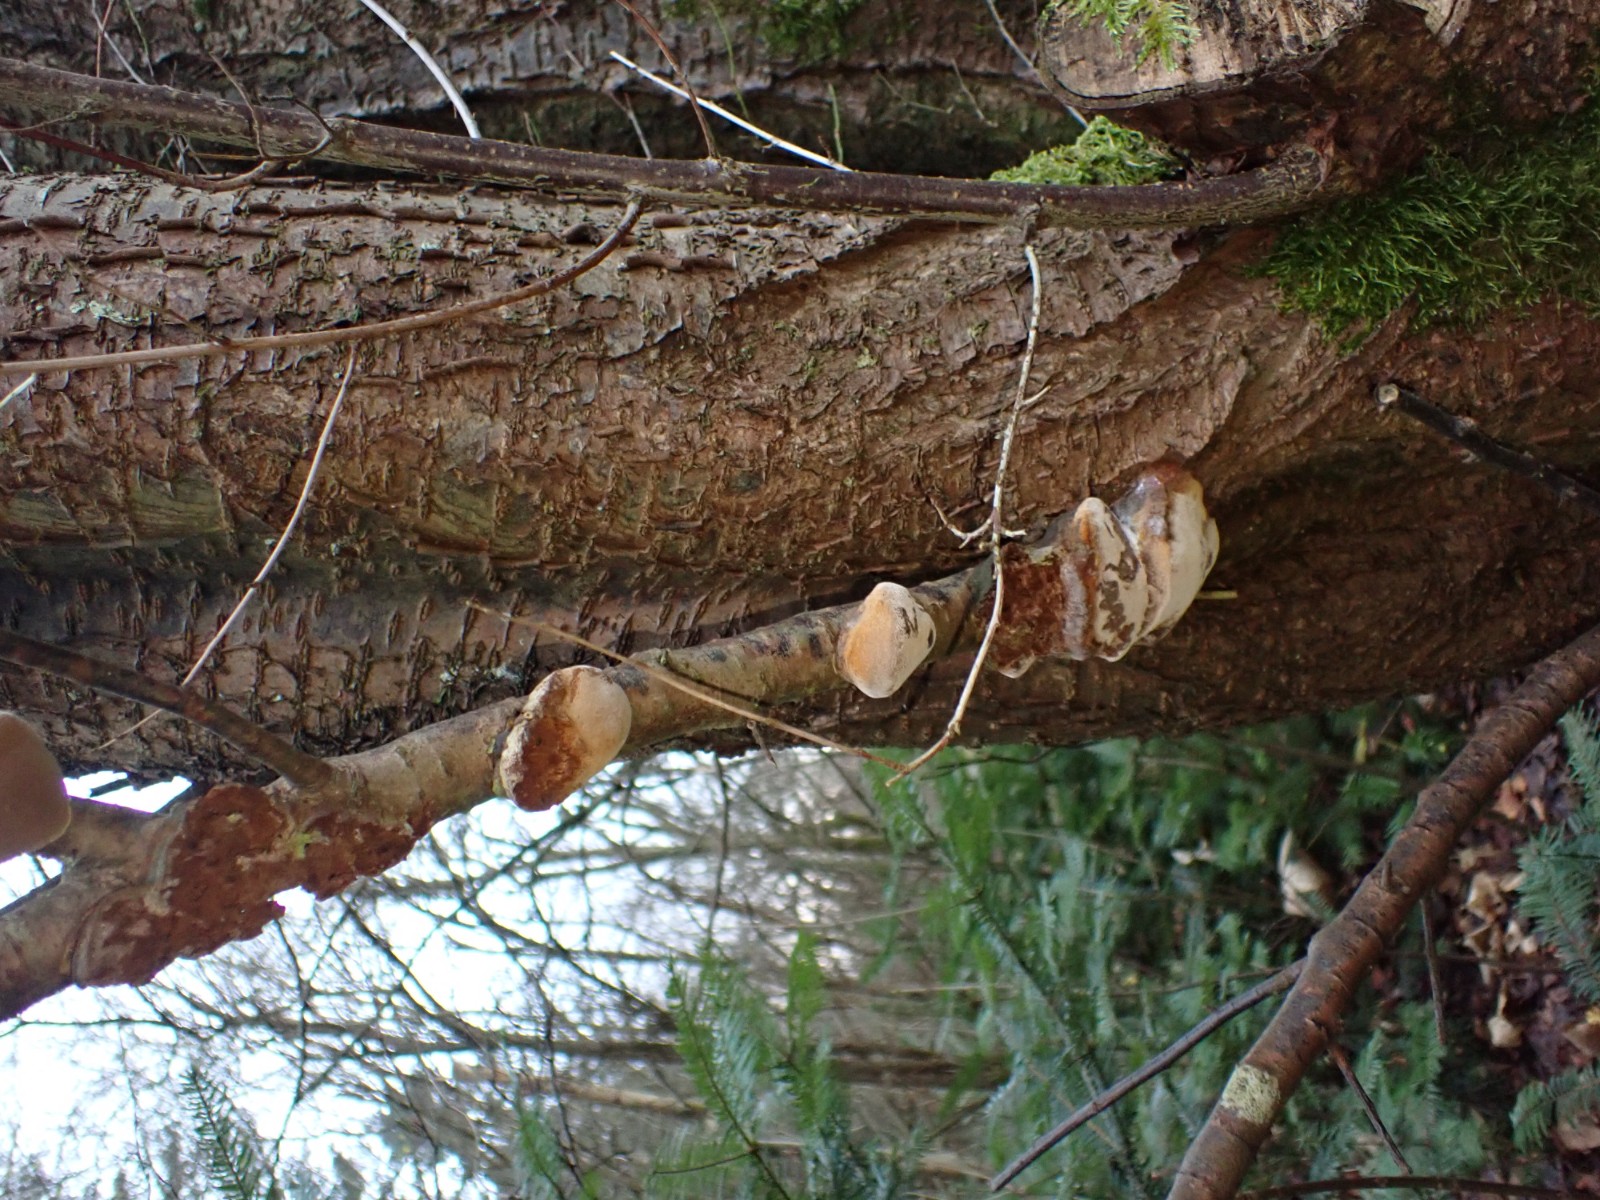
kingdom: Fungi
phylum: Basidiomycota
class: Agaricomycetes
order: Hymenochaetales
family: Hymenochaetaceae
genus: Phellinus
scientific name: Phellinus pomaceus
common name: blomme-ildporesvamp
